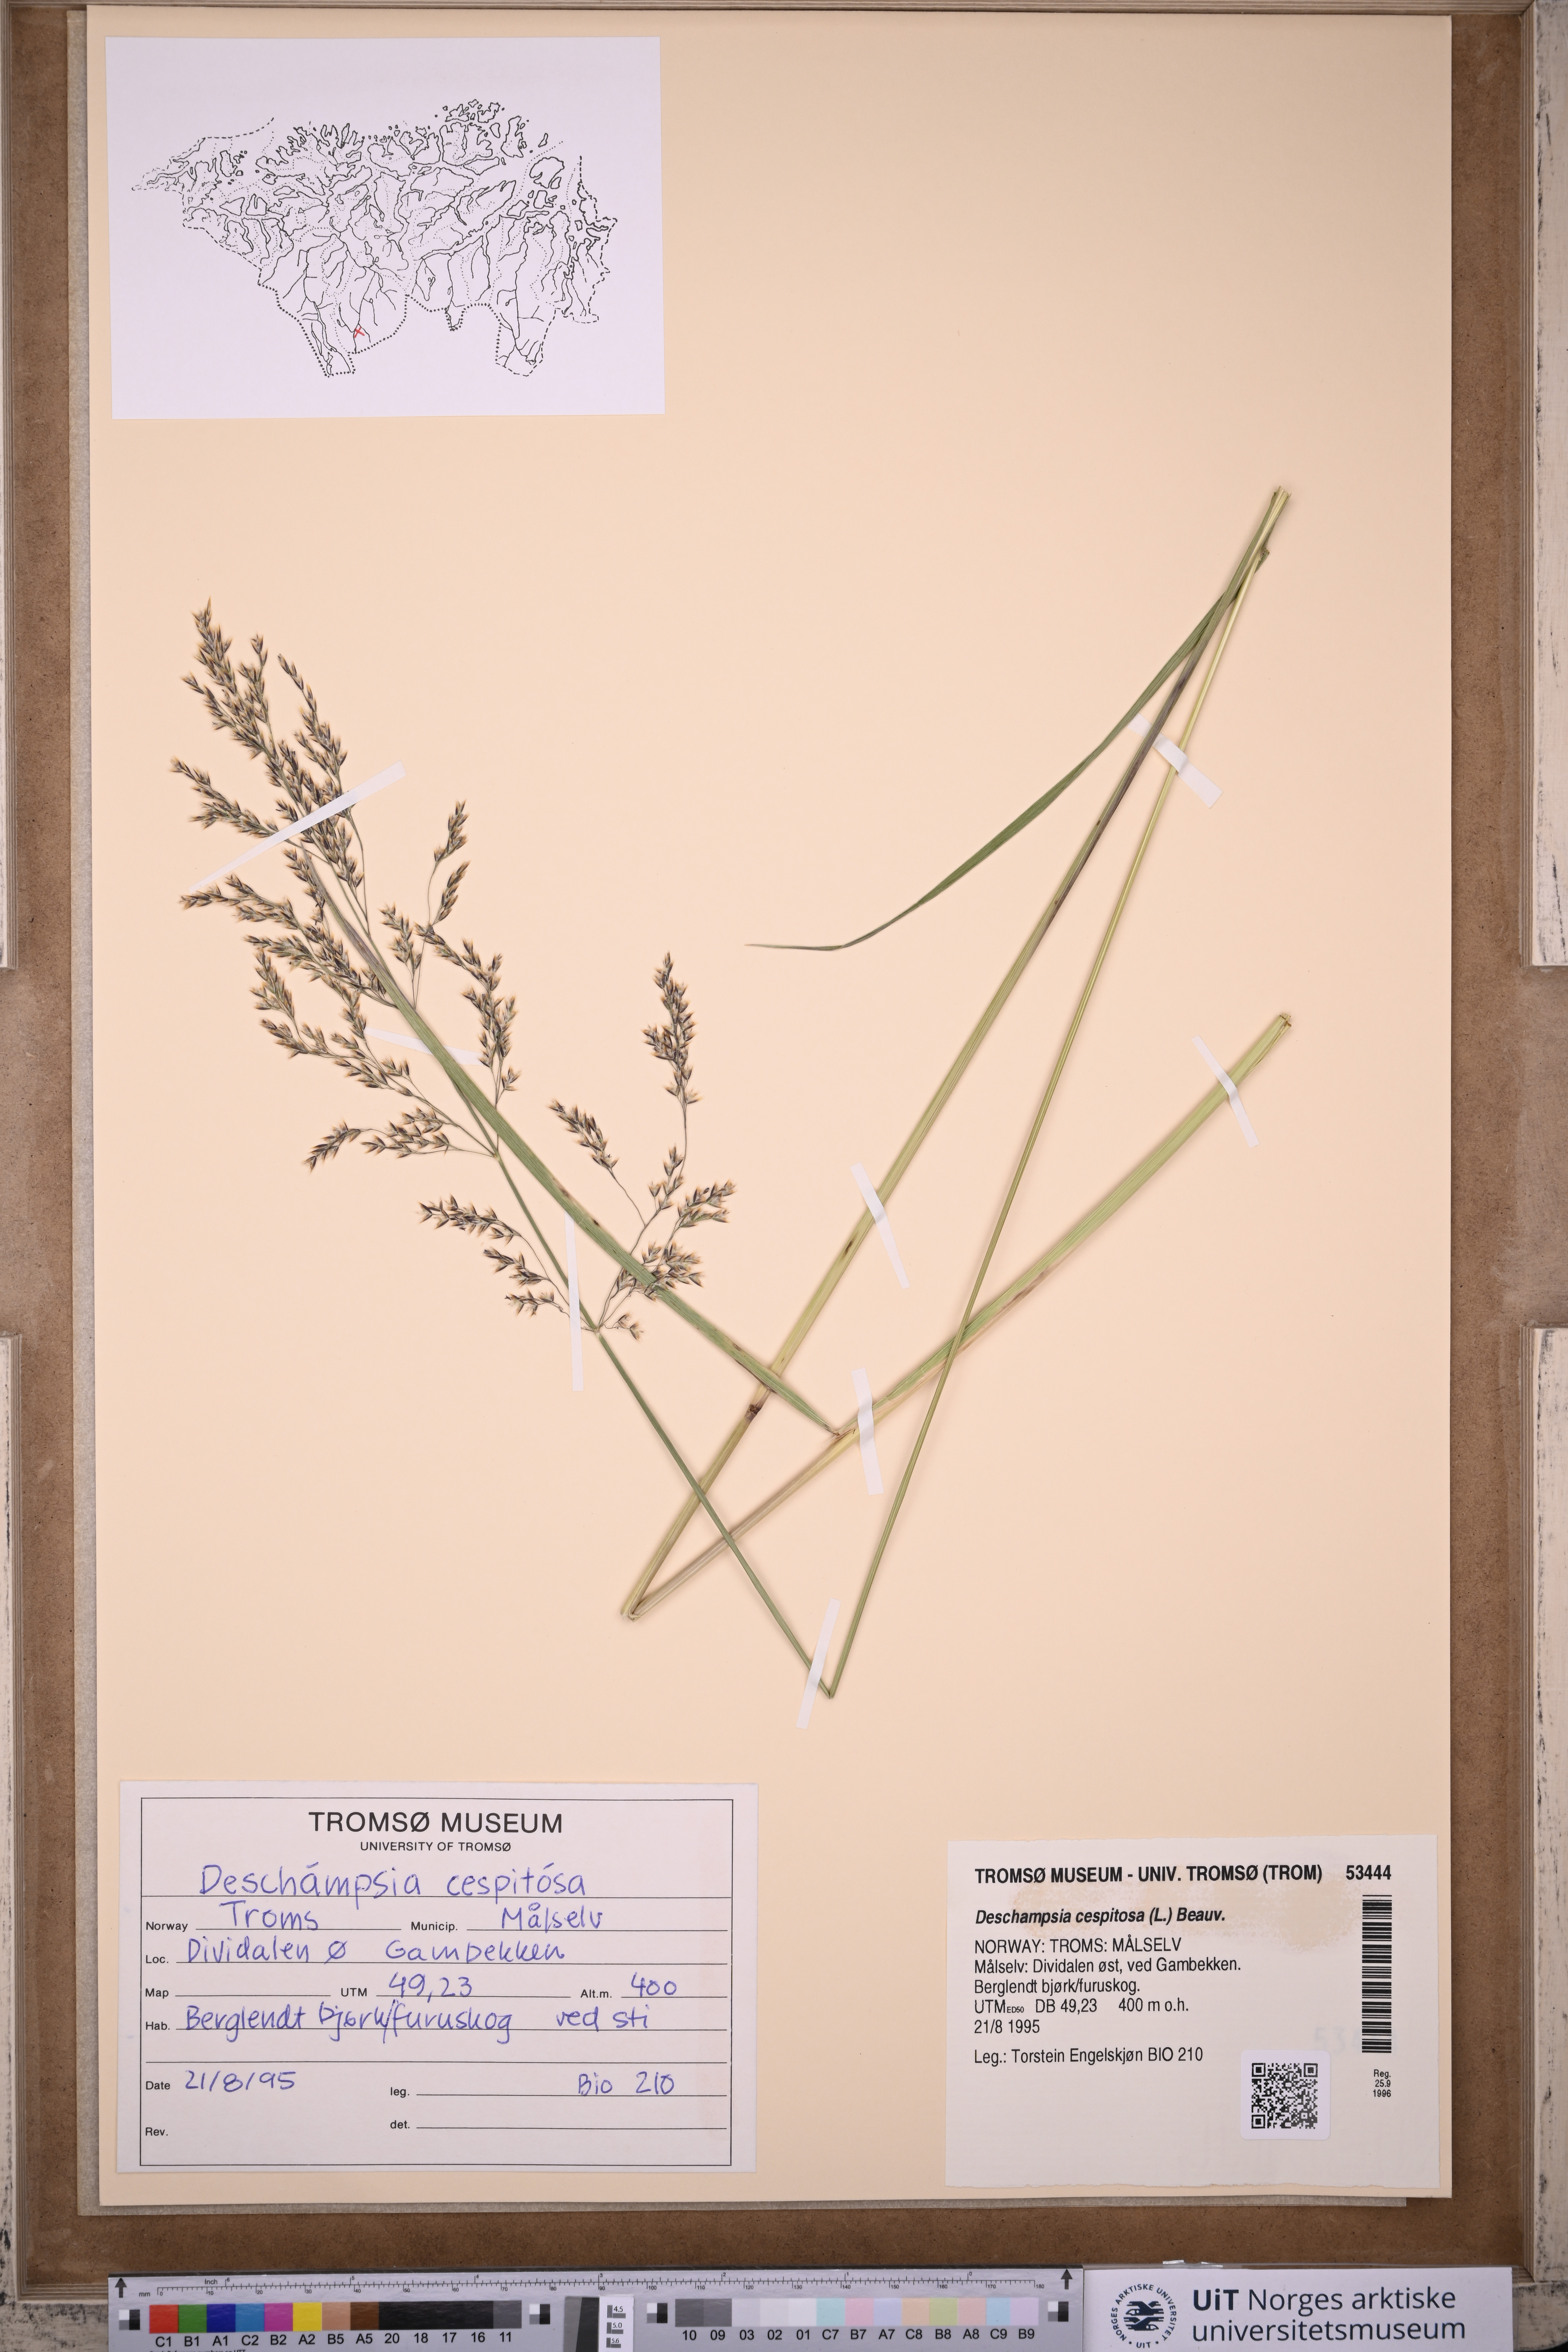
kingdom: Plantae
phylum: Tracheophyta
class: Liliopsida
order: Poales
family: Poaceae
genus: Deschampsia
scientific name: Deschampsia cespitosa
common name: Tufted hair-grass
